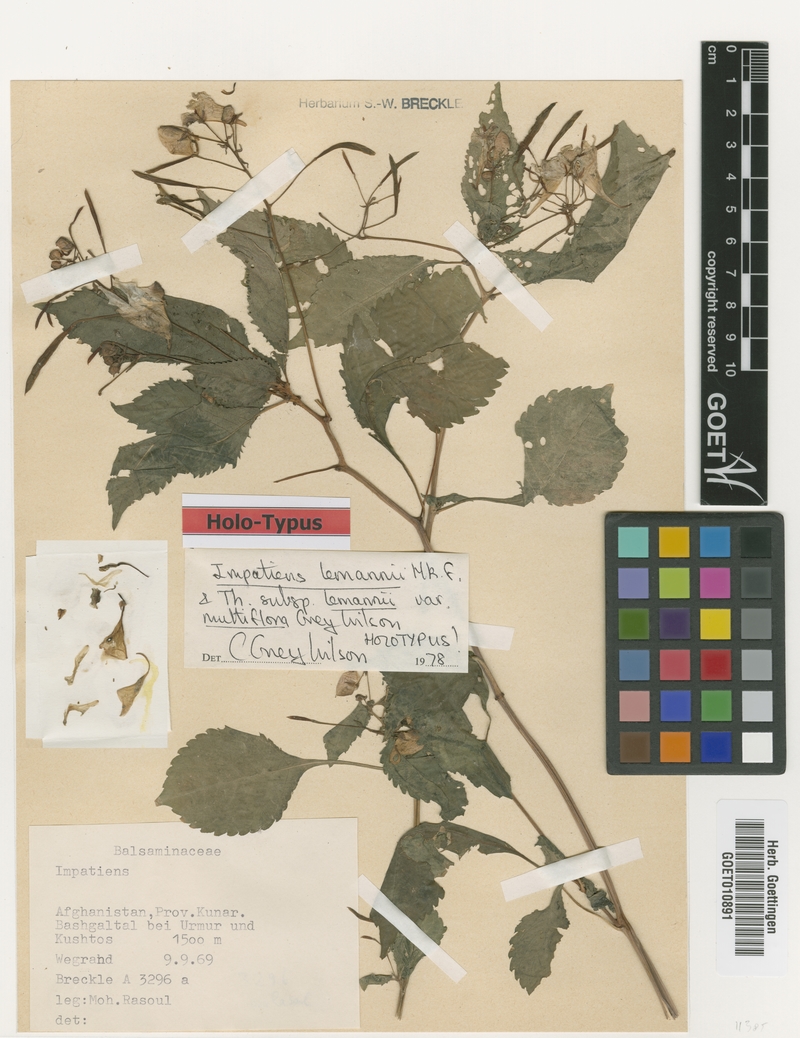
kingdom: Plantae
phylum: Tracheophyta
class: Magnoliopsida
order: Ericales
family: Balsaminaceae
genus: Impatiens
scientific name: Impatiens lemannii
